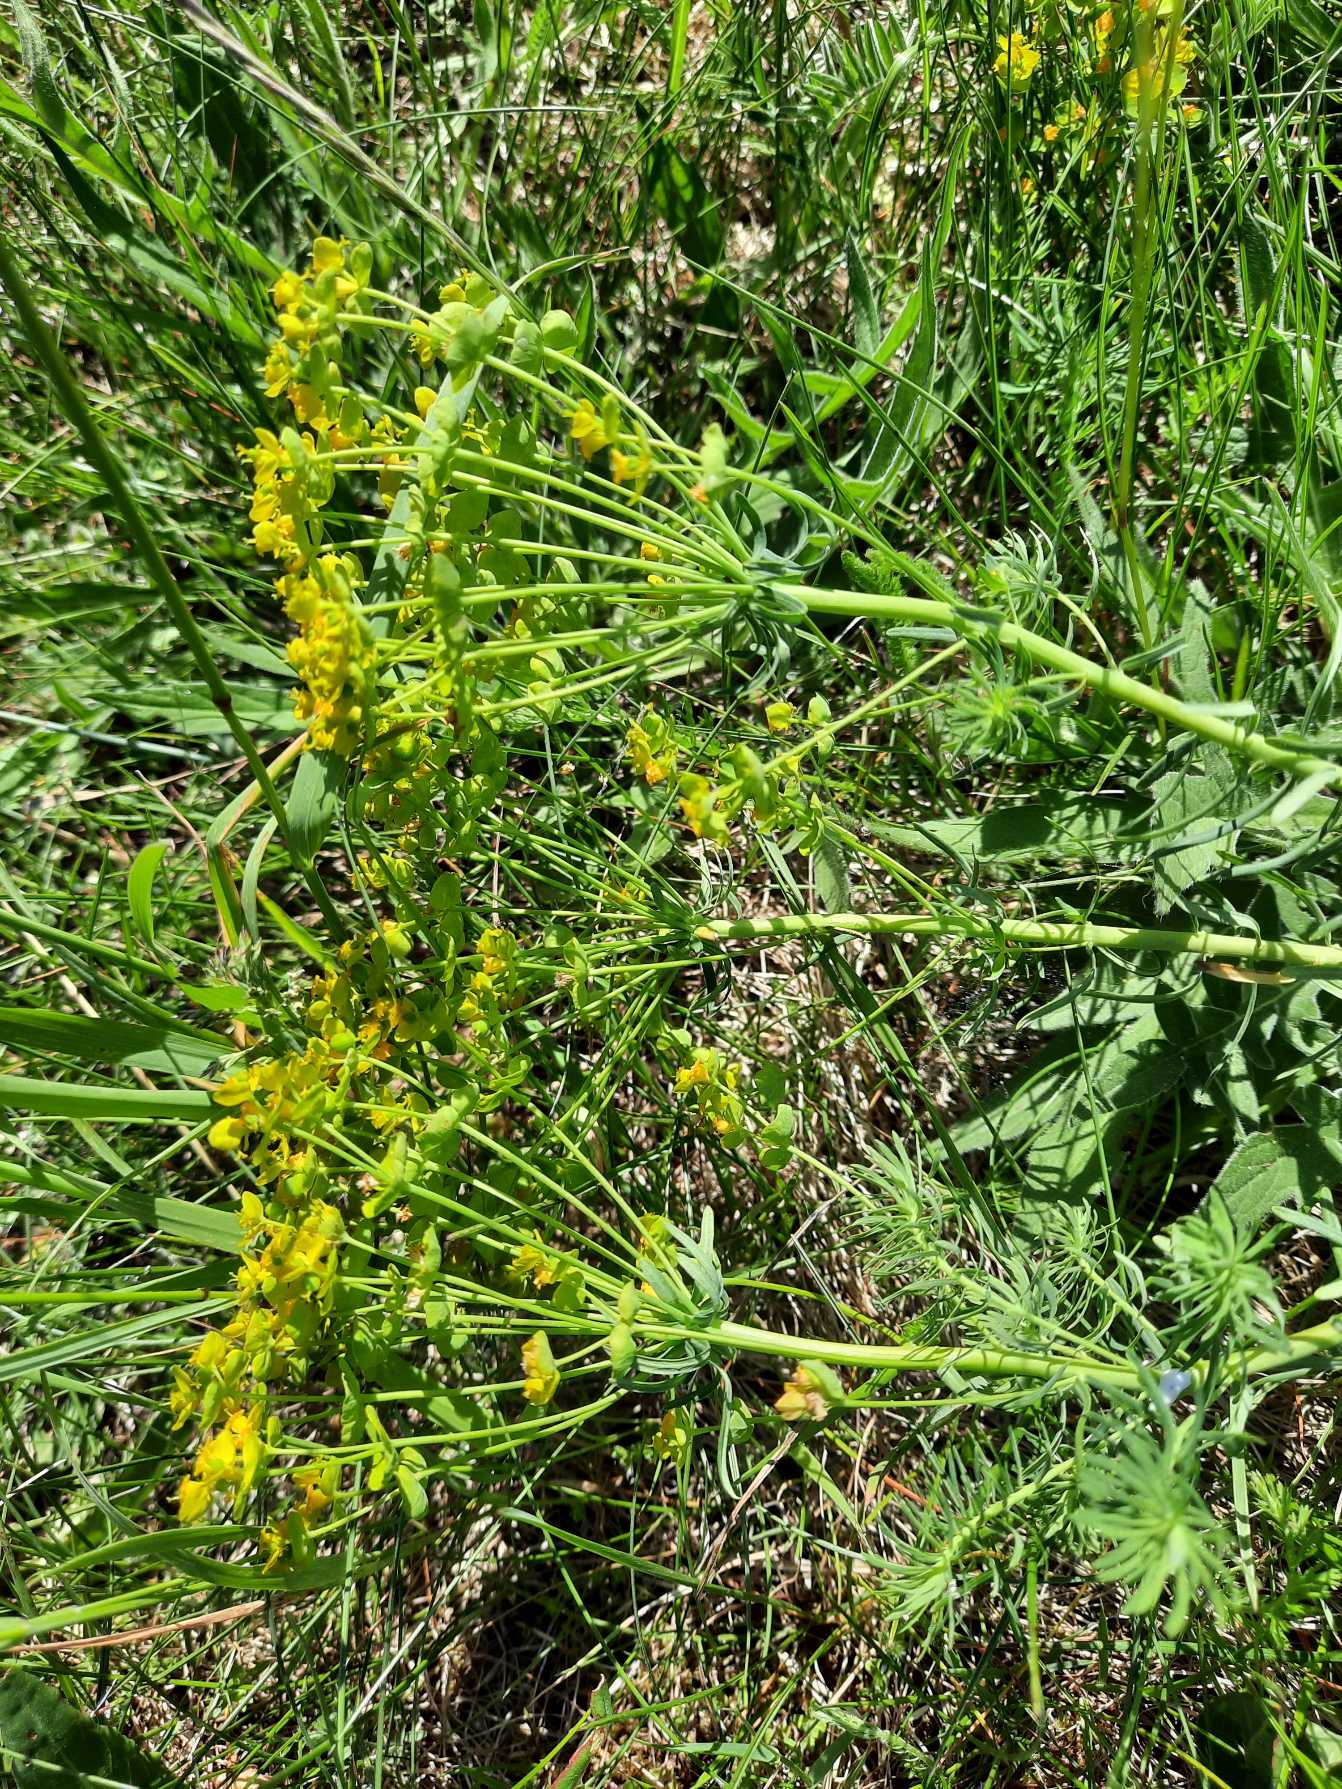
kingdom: Plantae
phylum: Tracheophyta
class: Magnoliopsida
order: Malpighiales
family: Euphorbiaceae
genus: Euphorbia
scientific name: Euphorbia cyparissias
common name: Cypres-vortemælk
